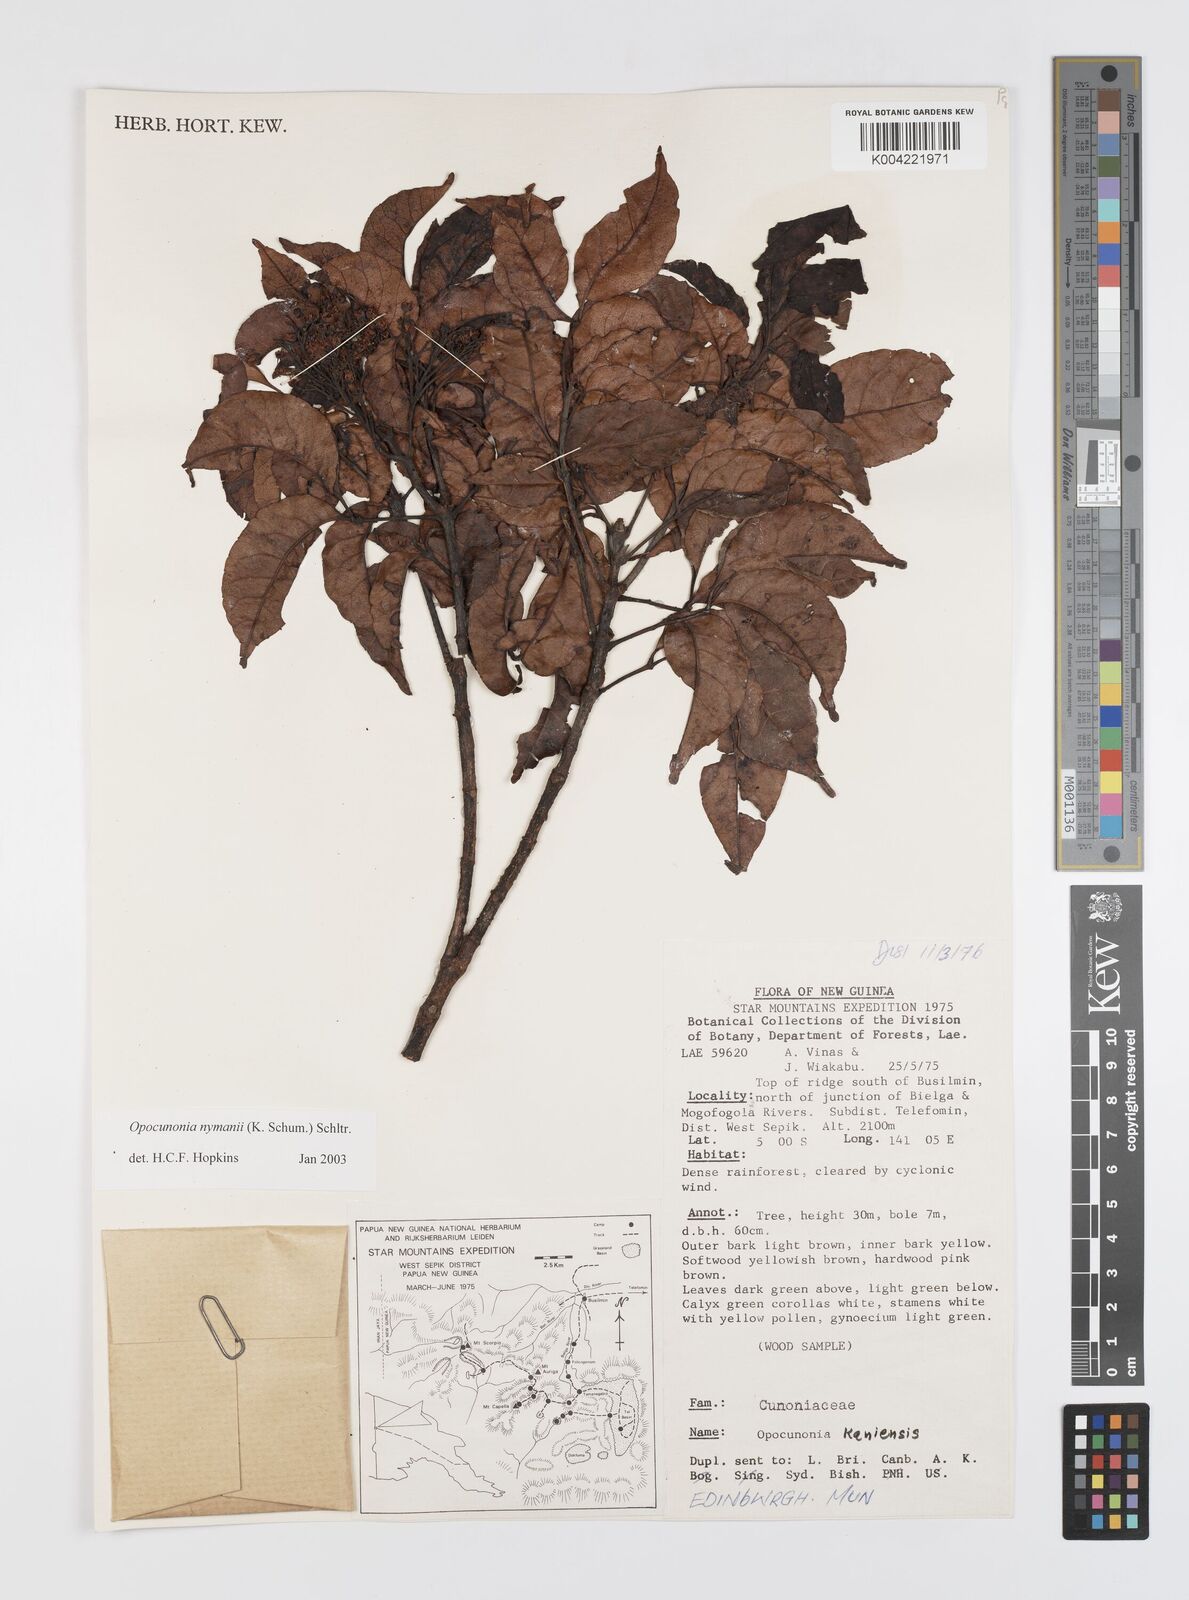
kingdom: Plantae
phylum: Tracheophyta
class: Magnoliopsida
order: Oxalidales
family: Cunoniaceae
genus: Opocunonia
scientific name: Opocunonia nymanii
